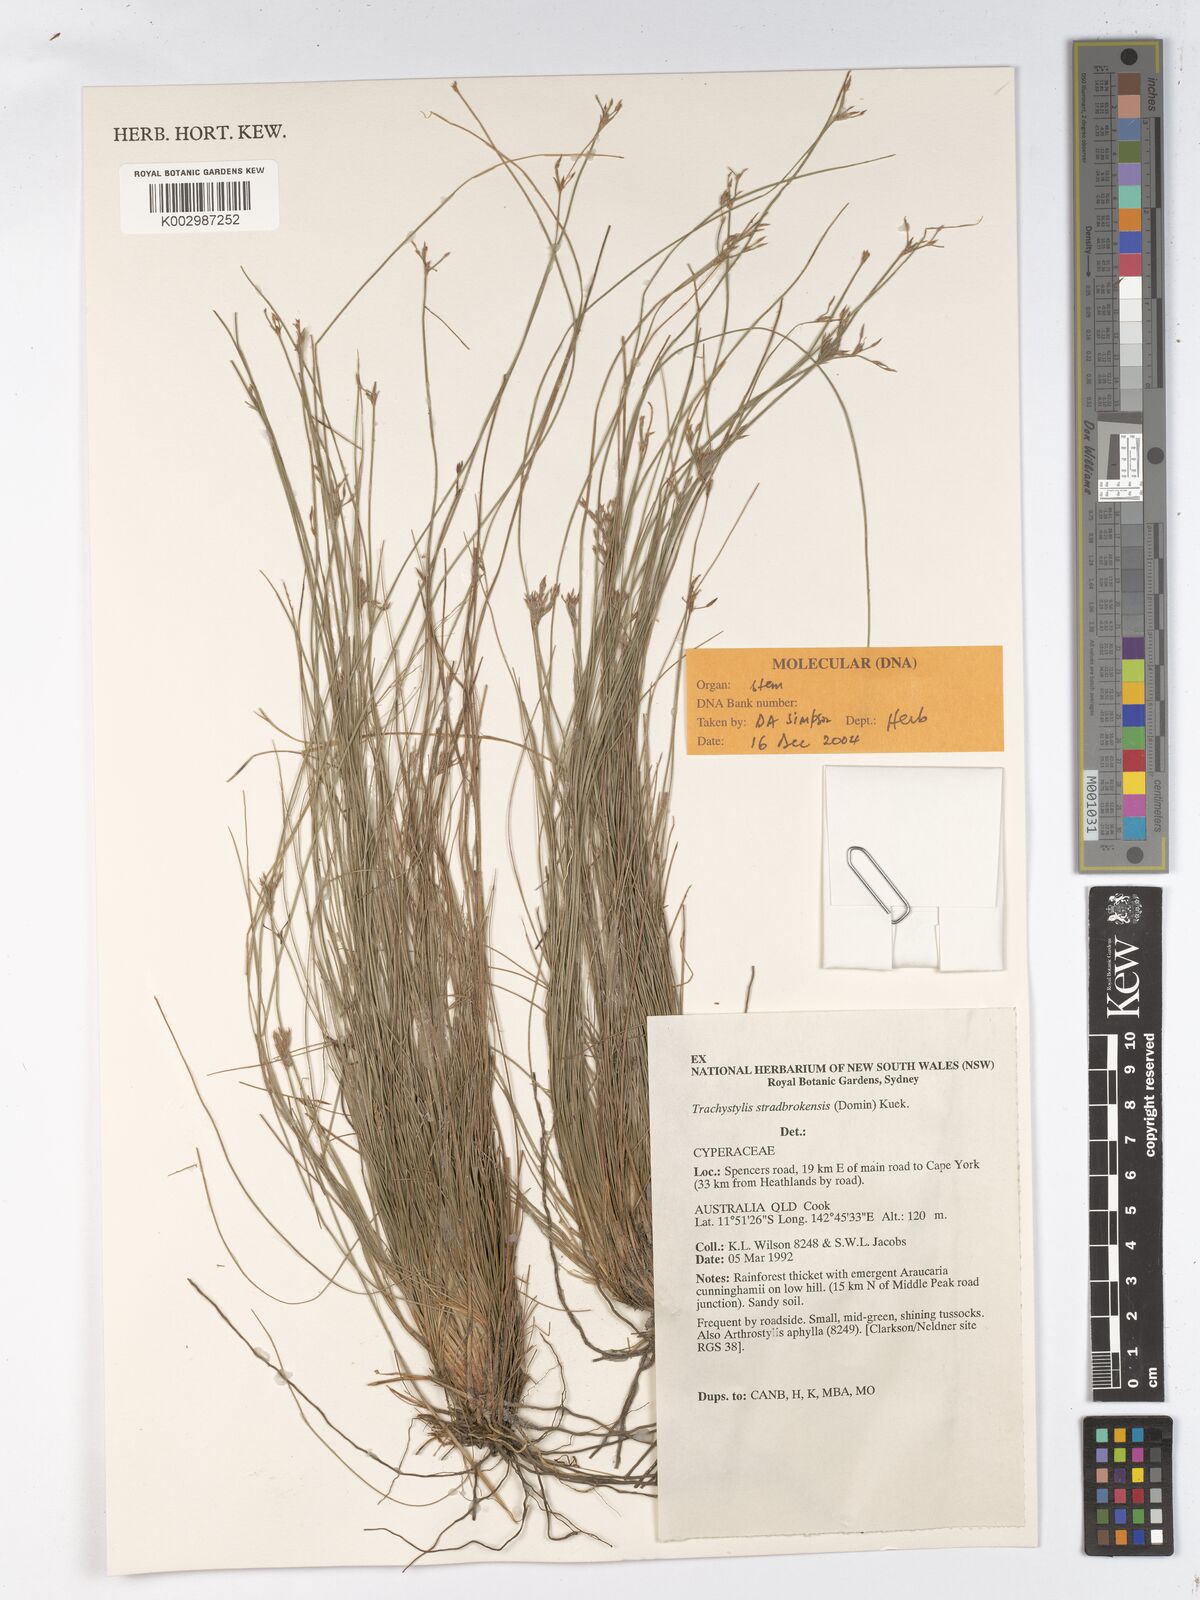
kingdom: Plantae
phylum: Tracheophyta
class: Liliopsida
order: Poales
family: Cyperaceae
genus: Trachystylis
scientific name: Trachystylis stradbrokensis
